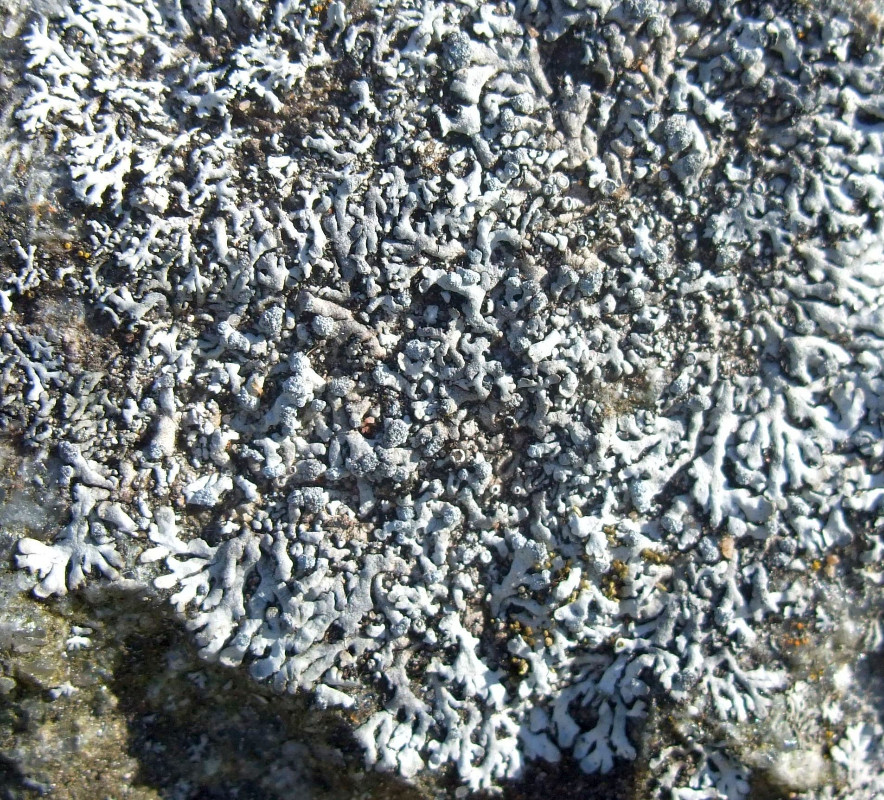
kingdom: Fungi
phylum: Ascomycota
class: Lecanoromycetes
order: Caliciales
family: Physciaceae
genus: Physcia
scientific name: Physcia caesia
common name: blågrå rosetlav
